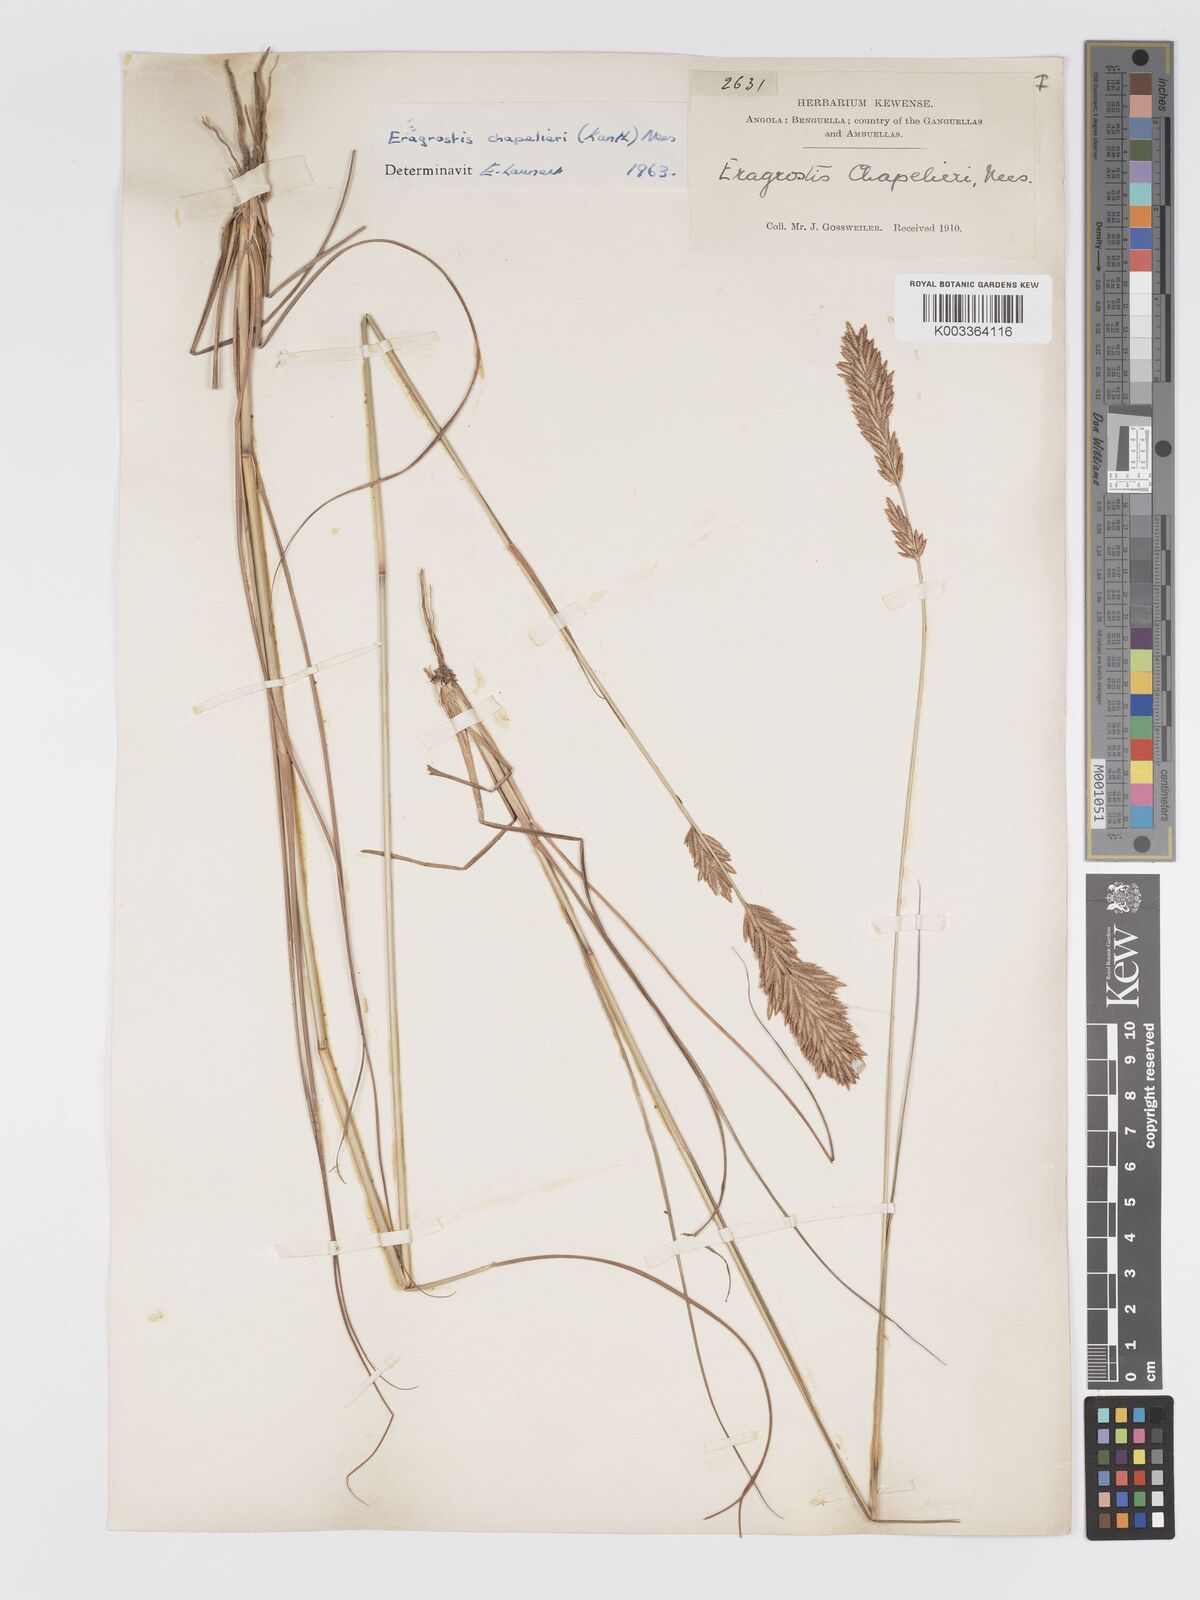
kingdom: Plantae
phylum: Tracheophyta
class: Liliopsida
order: Poales
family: Poaceae
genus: Eragrostis
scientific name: Eragrostis chapelieri
